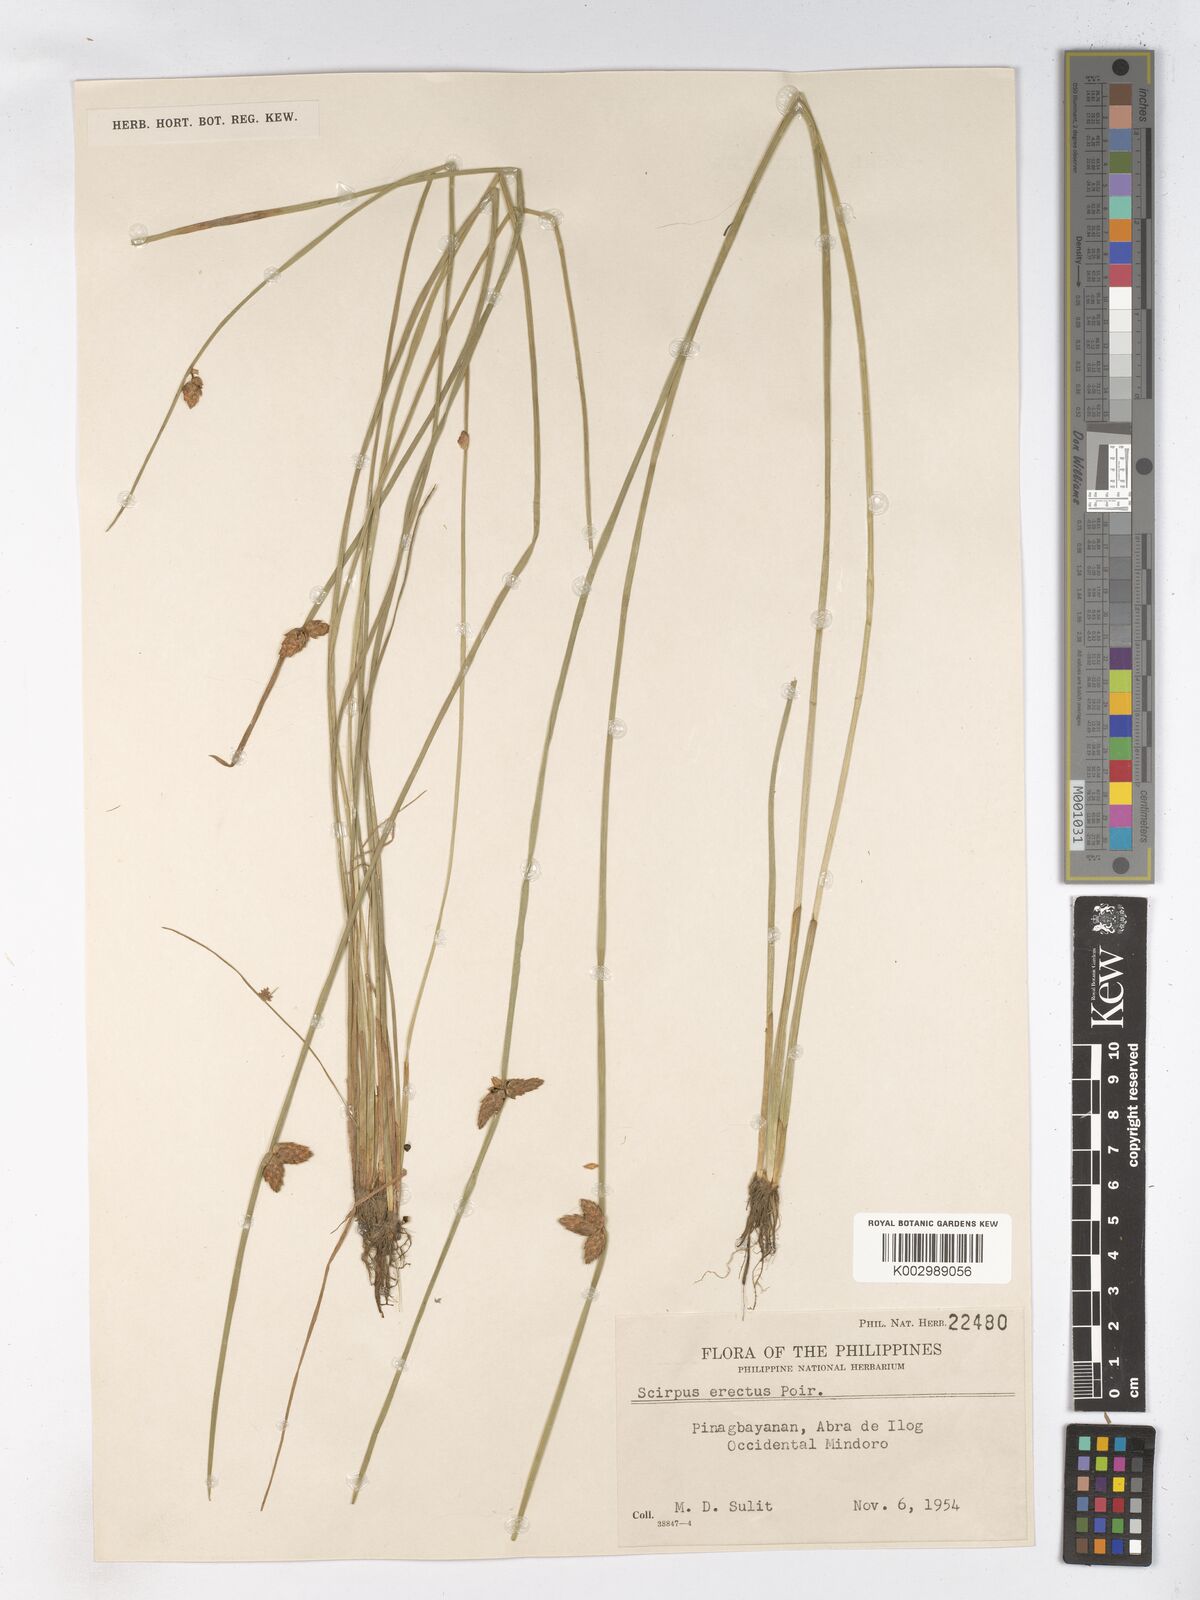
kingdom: Plantae
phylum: Tracheophyta
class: Liliopsida
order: Poales
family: Cyperaceae
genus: Schoenoplectiella
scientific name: Schoenoplectiella juncoides
